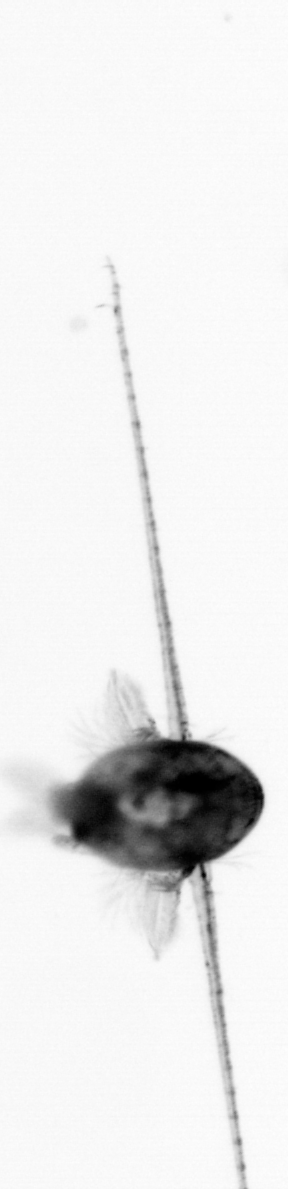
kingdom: Animalia
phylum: Arthropoda
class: Copepoda
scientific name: Copepoda
